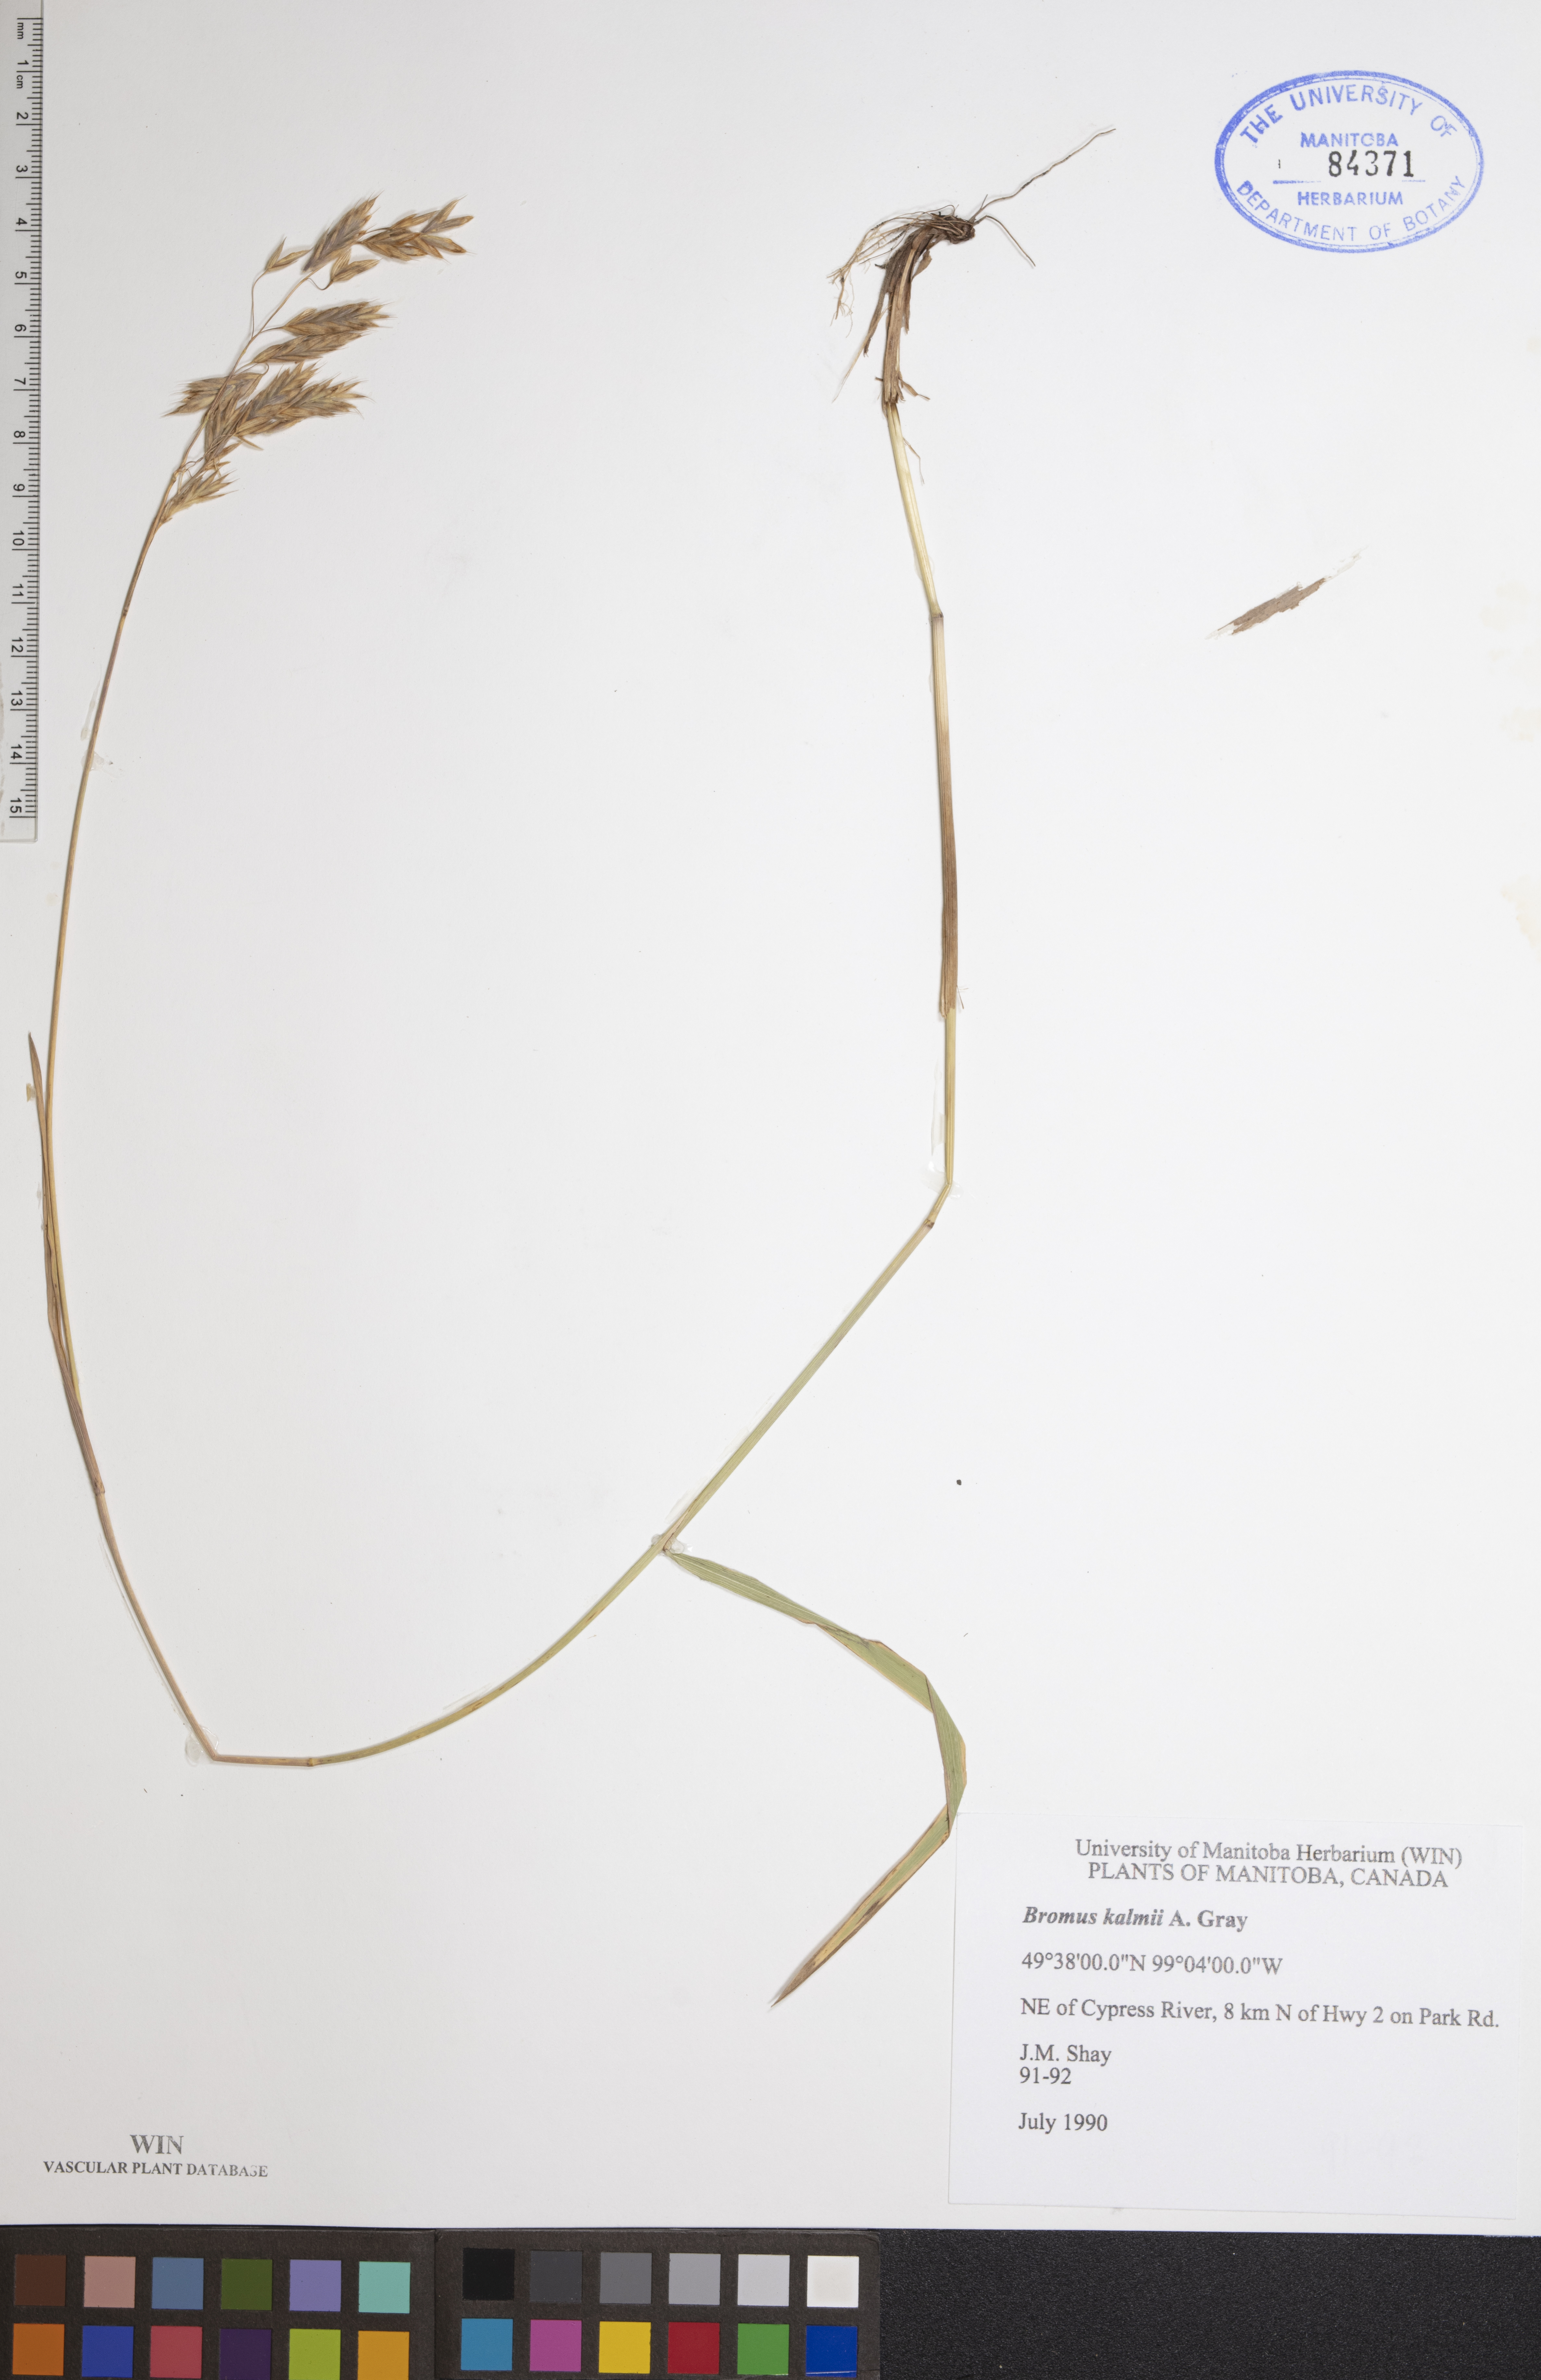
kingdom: Plantae
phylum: Tracheophyta
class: Liliopsida
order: Poales
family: Poaceae
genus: Bromus
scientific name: Bromus kalmii
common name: Kalm brome
